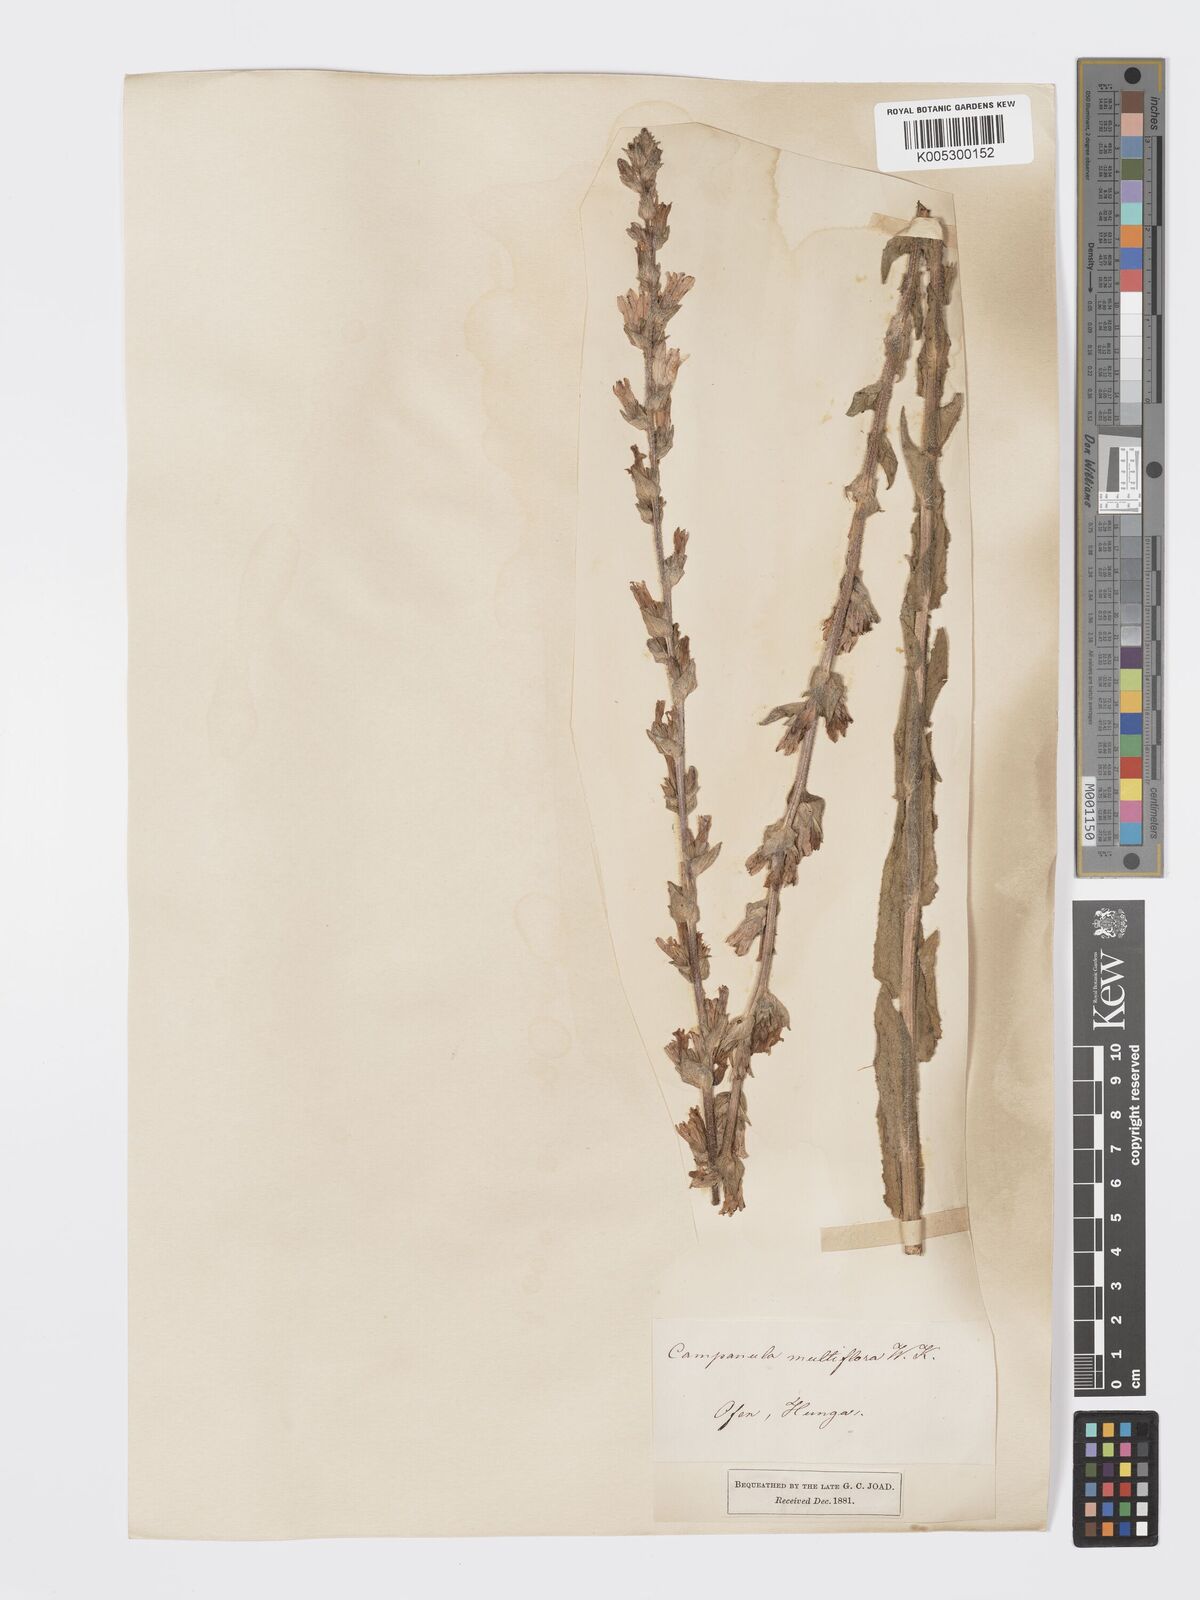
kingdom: Plantae
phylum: Tracheophyta
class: Magnoliopsida
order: Asterales
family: Campanulaceae
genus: Campanula
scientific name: Campanula macrostachya
